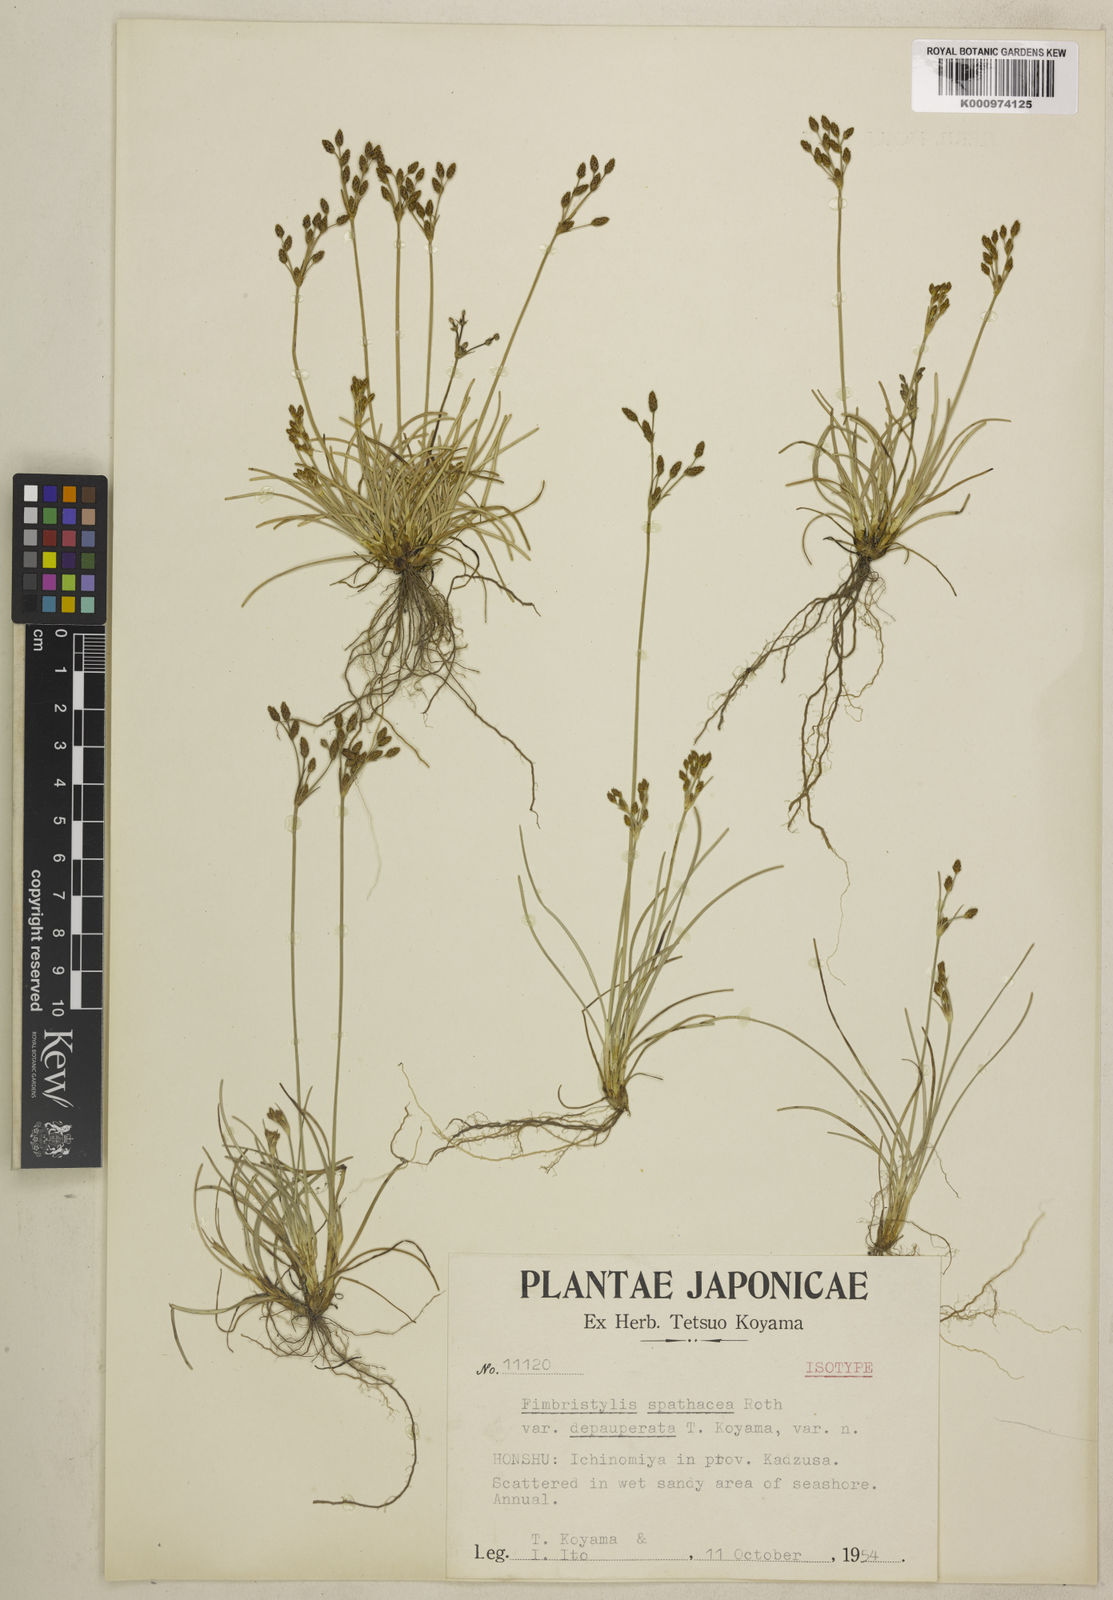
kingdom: Plantae
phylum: Tracheophyta
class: Liliopsida
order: Poales
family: Cyperaceae
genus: Fimbristylis
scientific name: Fimbristylis cymosa
